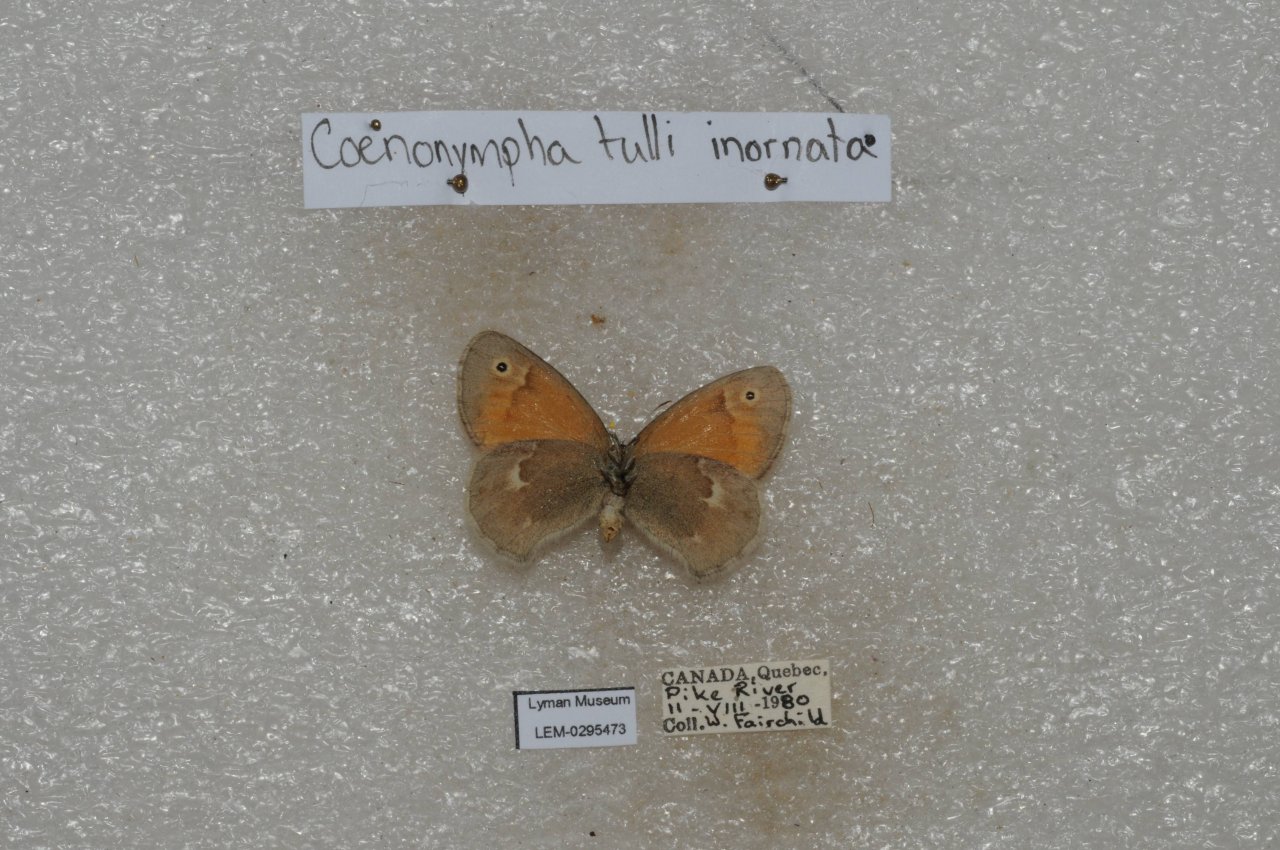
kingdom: Animalia
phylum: Arthropoda
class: Insecta
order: Lepidoptera
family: Nymphalidae
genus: Coenonympha
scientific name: Coenonympha tullia
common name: Large Heath
